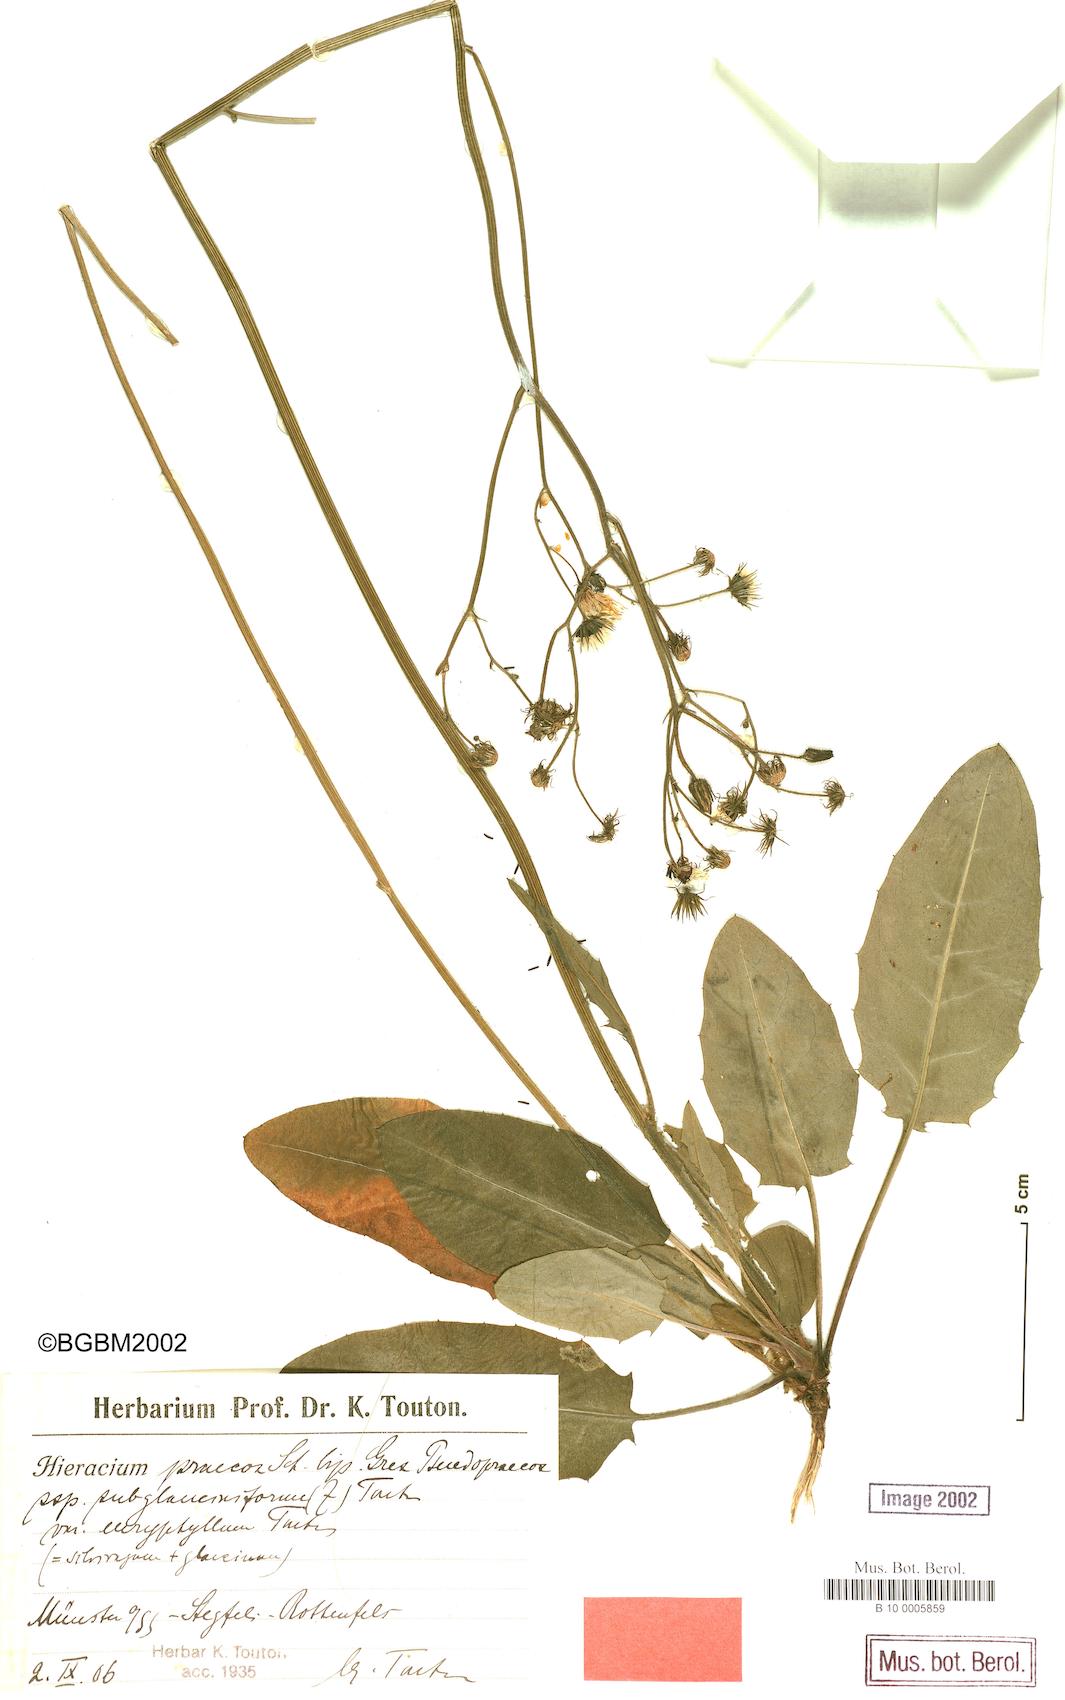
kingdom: Plantae
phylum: Tracheophyta
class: Magnoliopsida
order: Asterales
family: Asteraceae
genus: Hieracium
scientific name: Hieracium praecox
